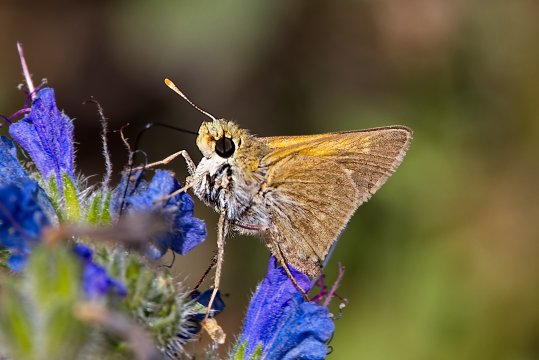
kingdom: Animalia
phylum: Arthropoda
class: Insecta
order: Lepidoptera
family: Hesperiidae
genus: Polites
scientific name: Polites themistocles
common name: Tawny-edged Skipper
